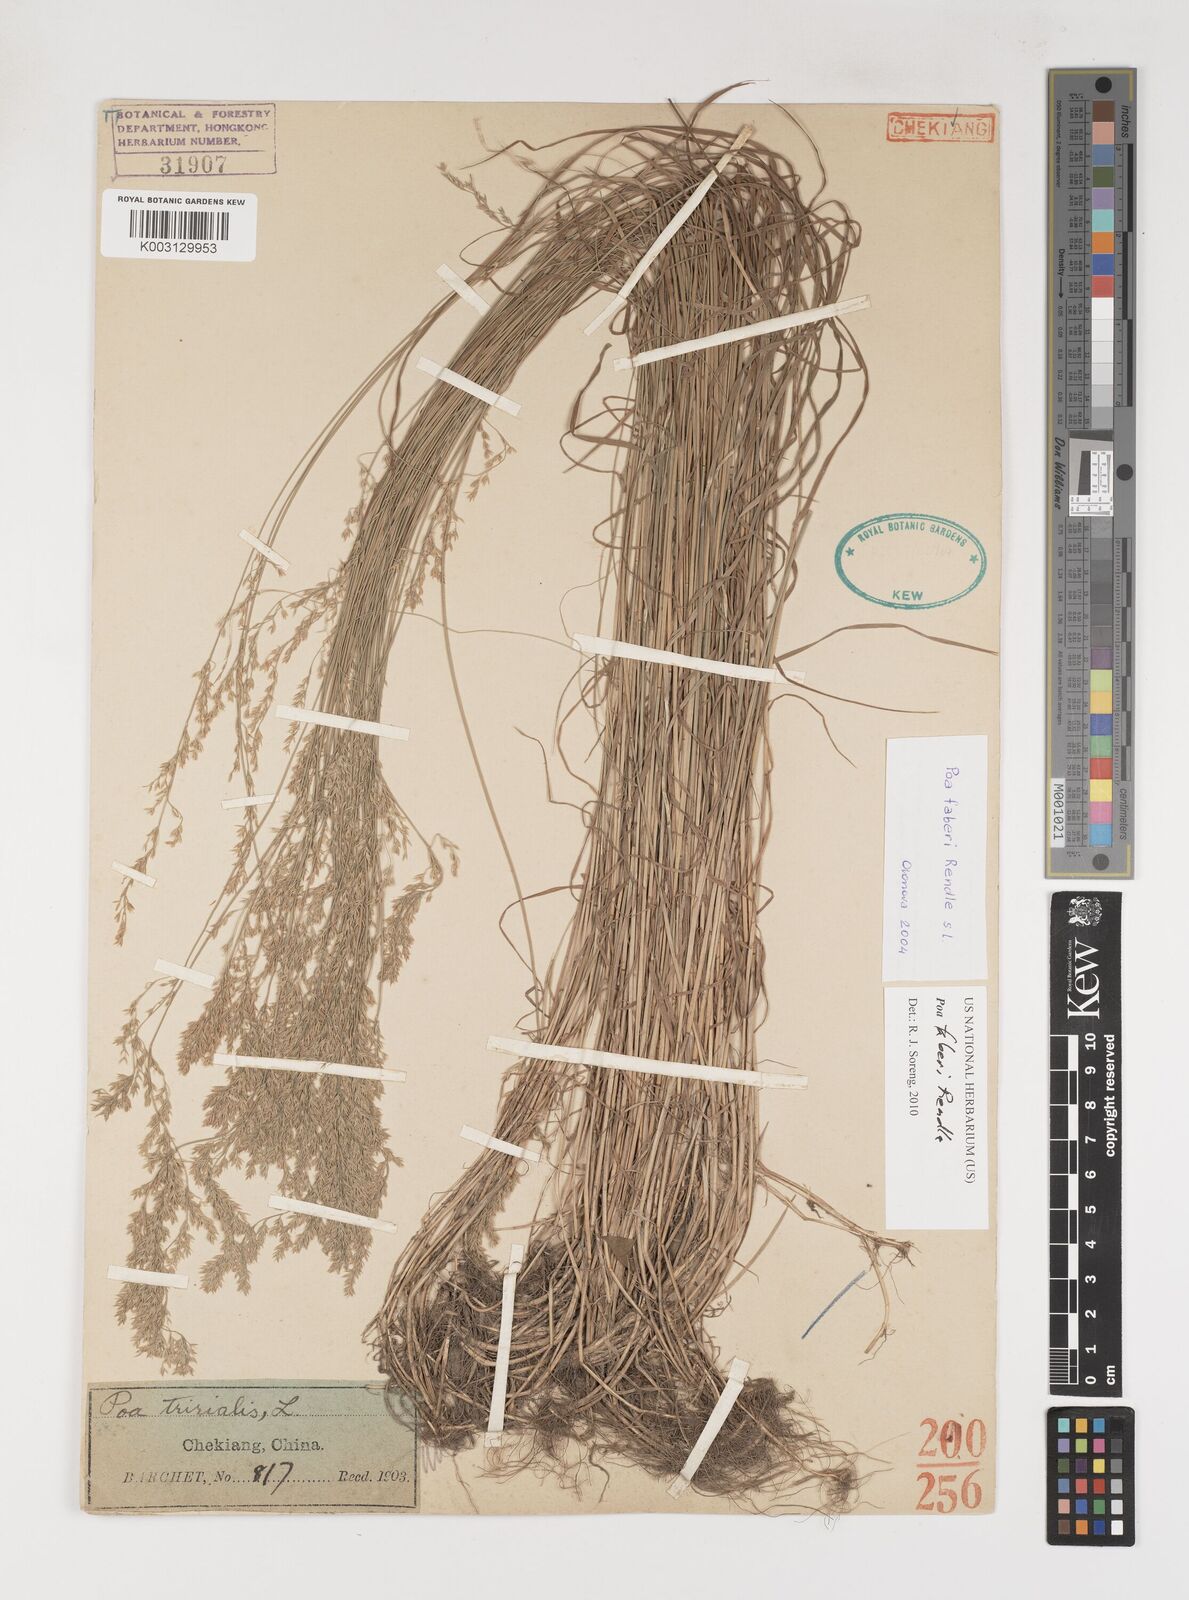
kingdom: Plantae
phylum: Tracheophyta
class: Liliopsida
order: Poales
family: Poaceae
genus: Poa
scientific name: Poa faberi
